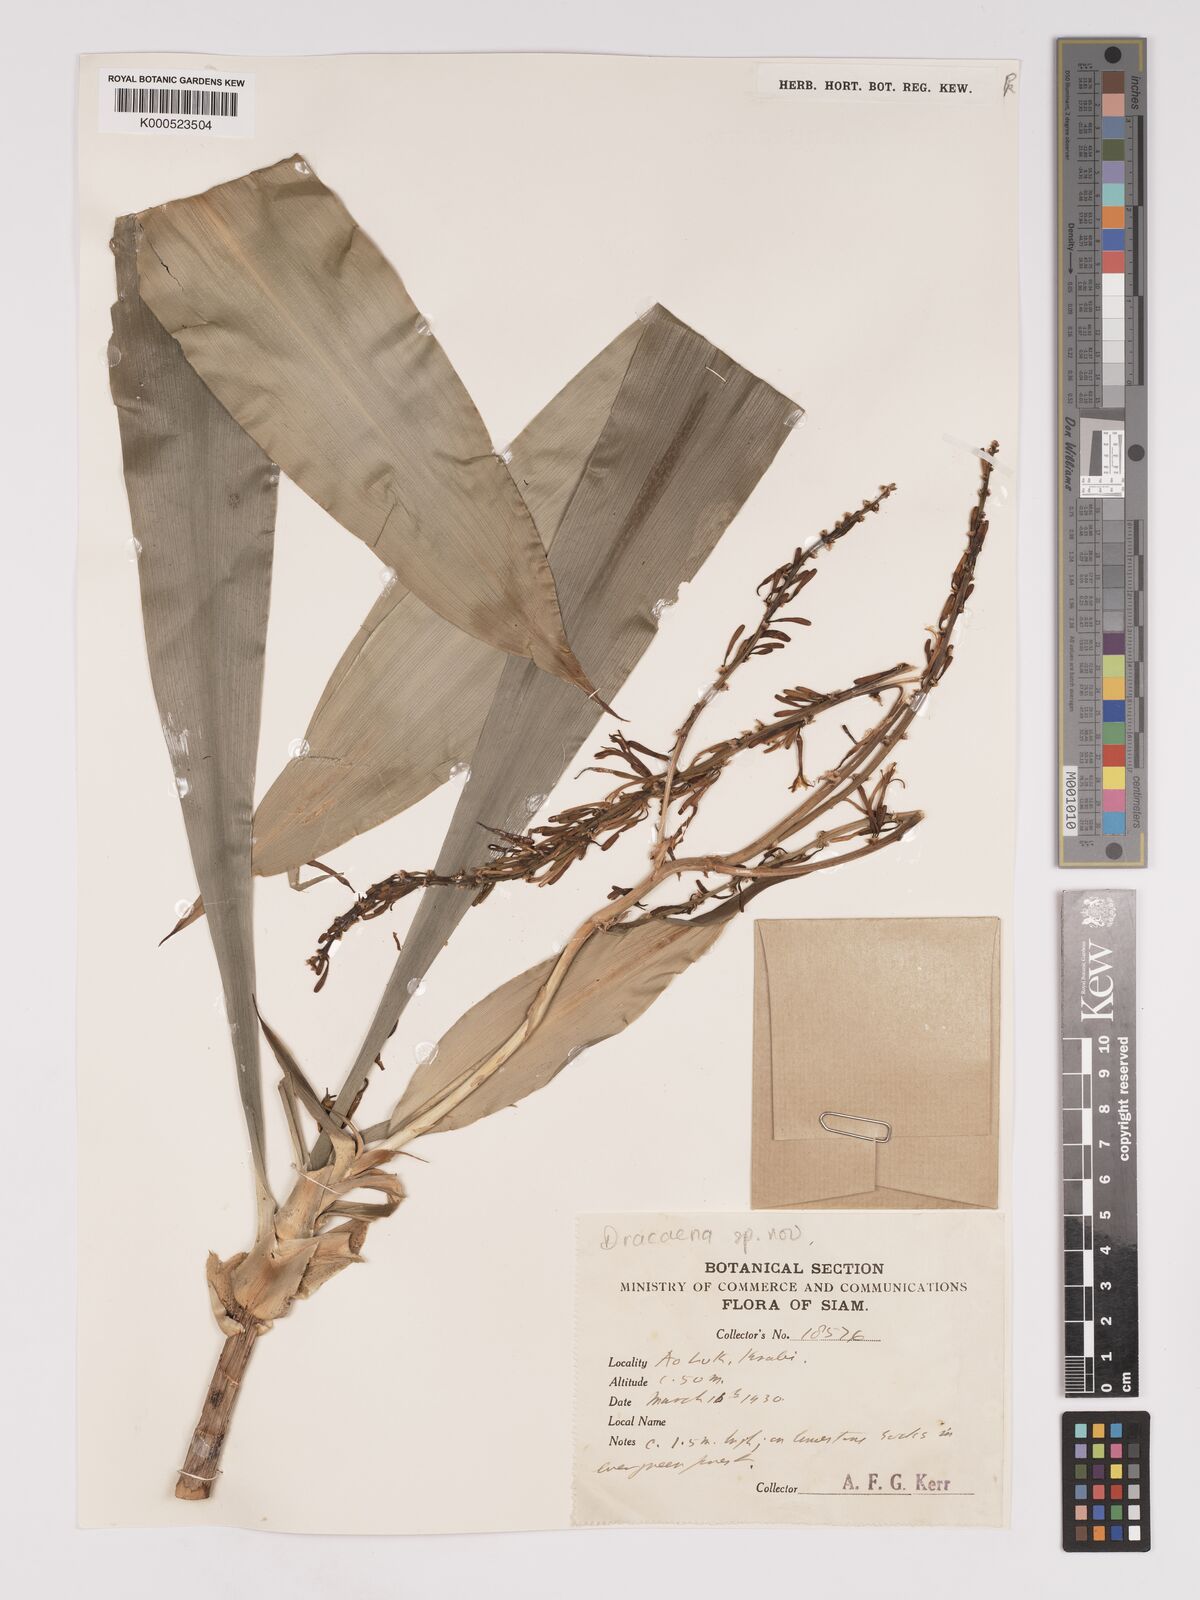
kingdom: Plantae
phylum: Tracheophyta
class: Liliopsida
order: Asparagales
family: Asparagaceae
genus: Dracaena
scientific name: Dracaena
